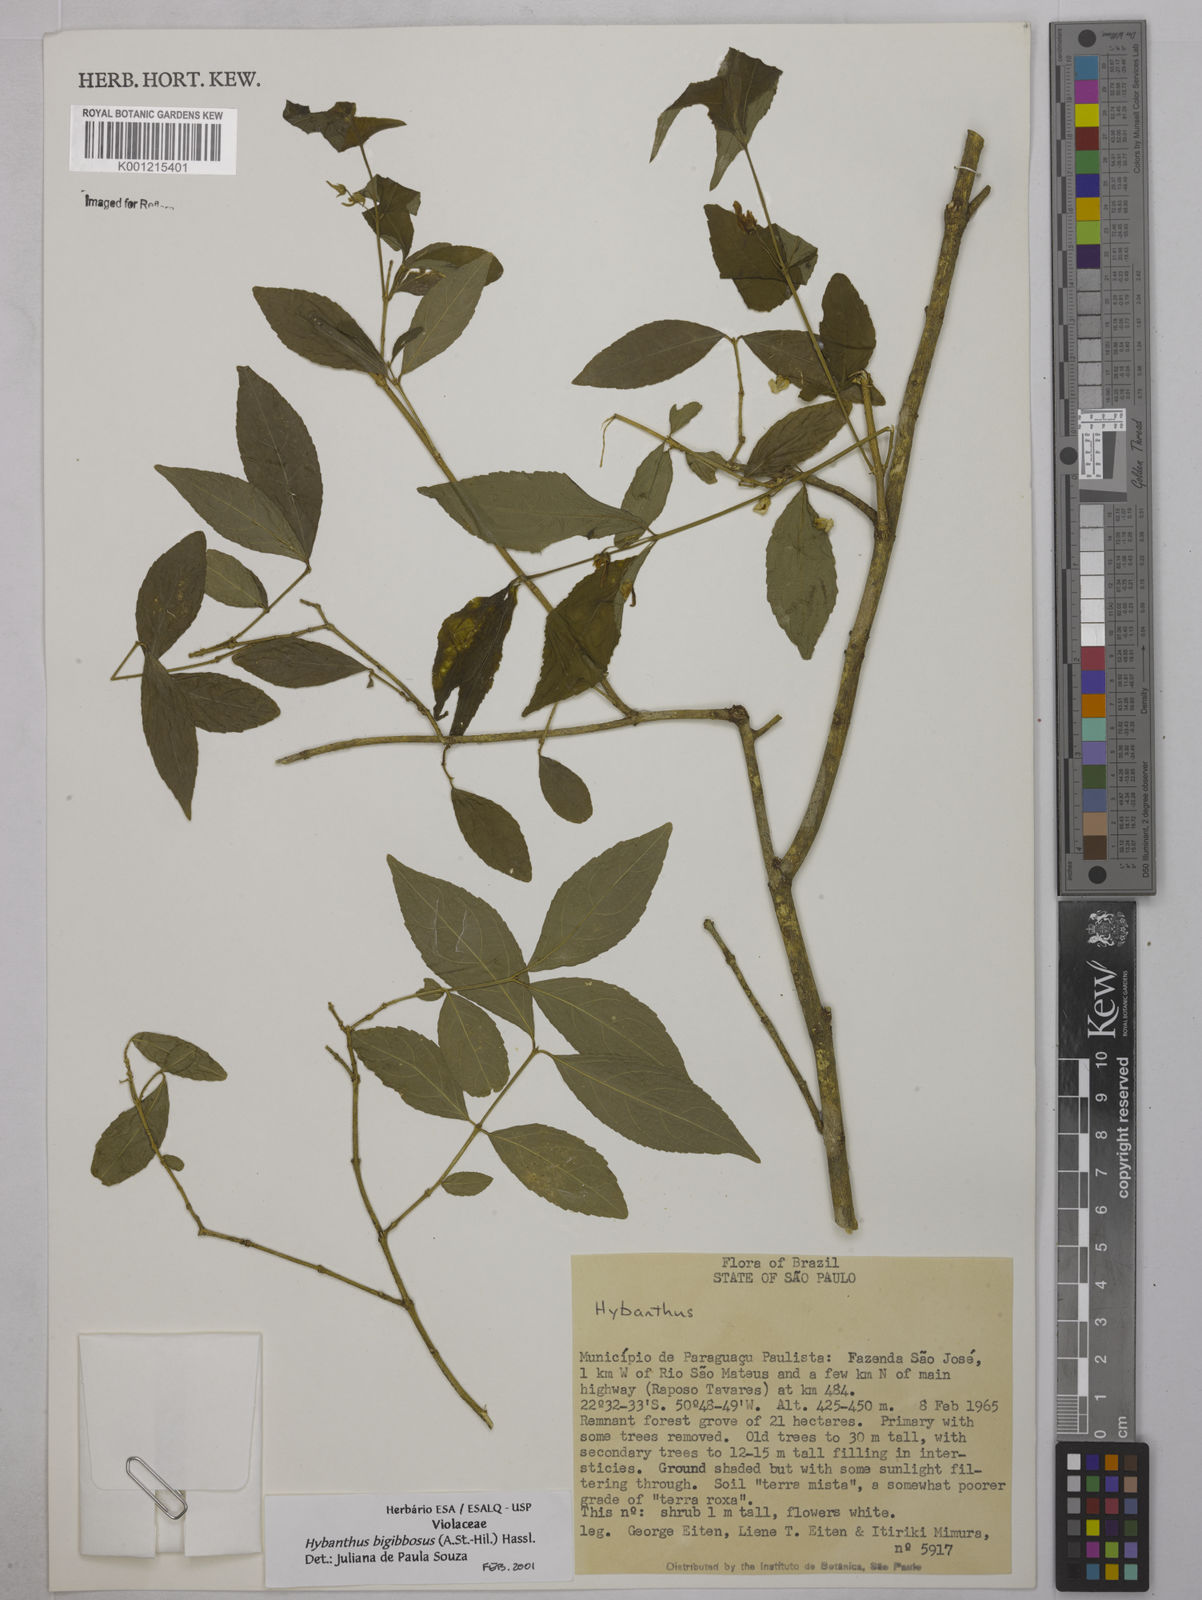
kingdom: Plantae
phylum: Tracheophyta
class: Magnoliopsida
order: Malpighiales
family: Violaceae
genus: Pombalia
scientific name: Pombalia bigibbosa
